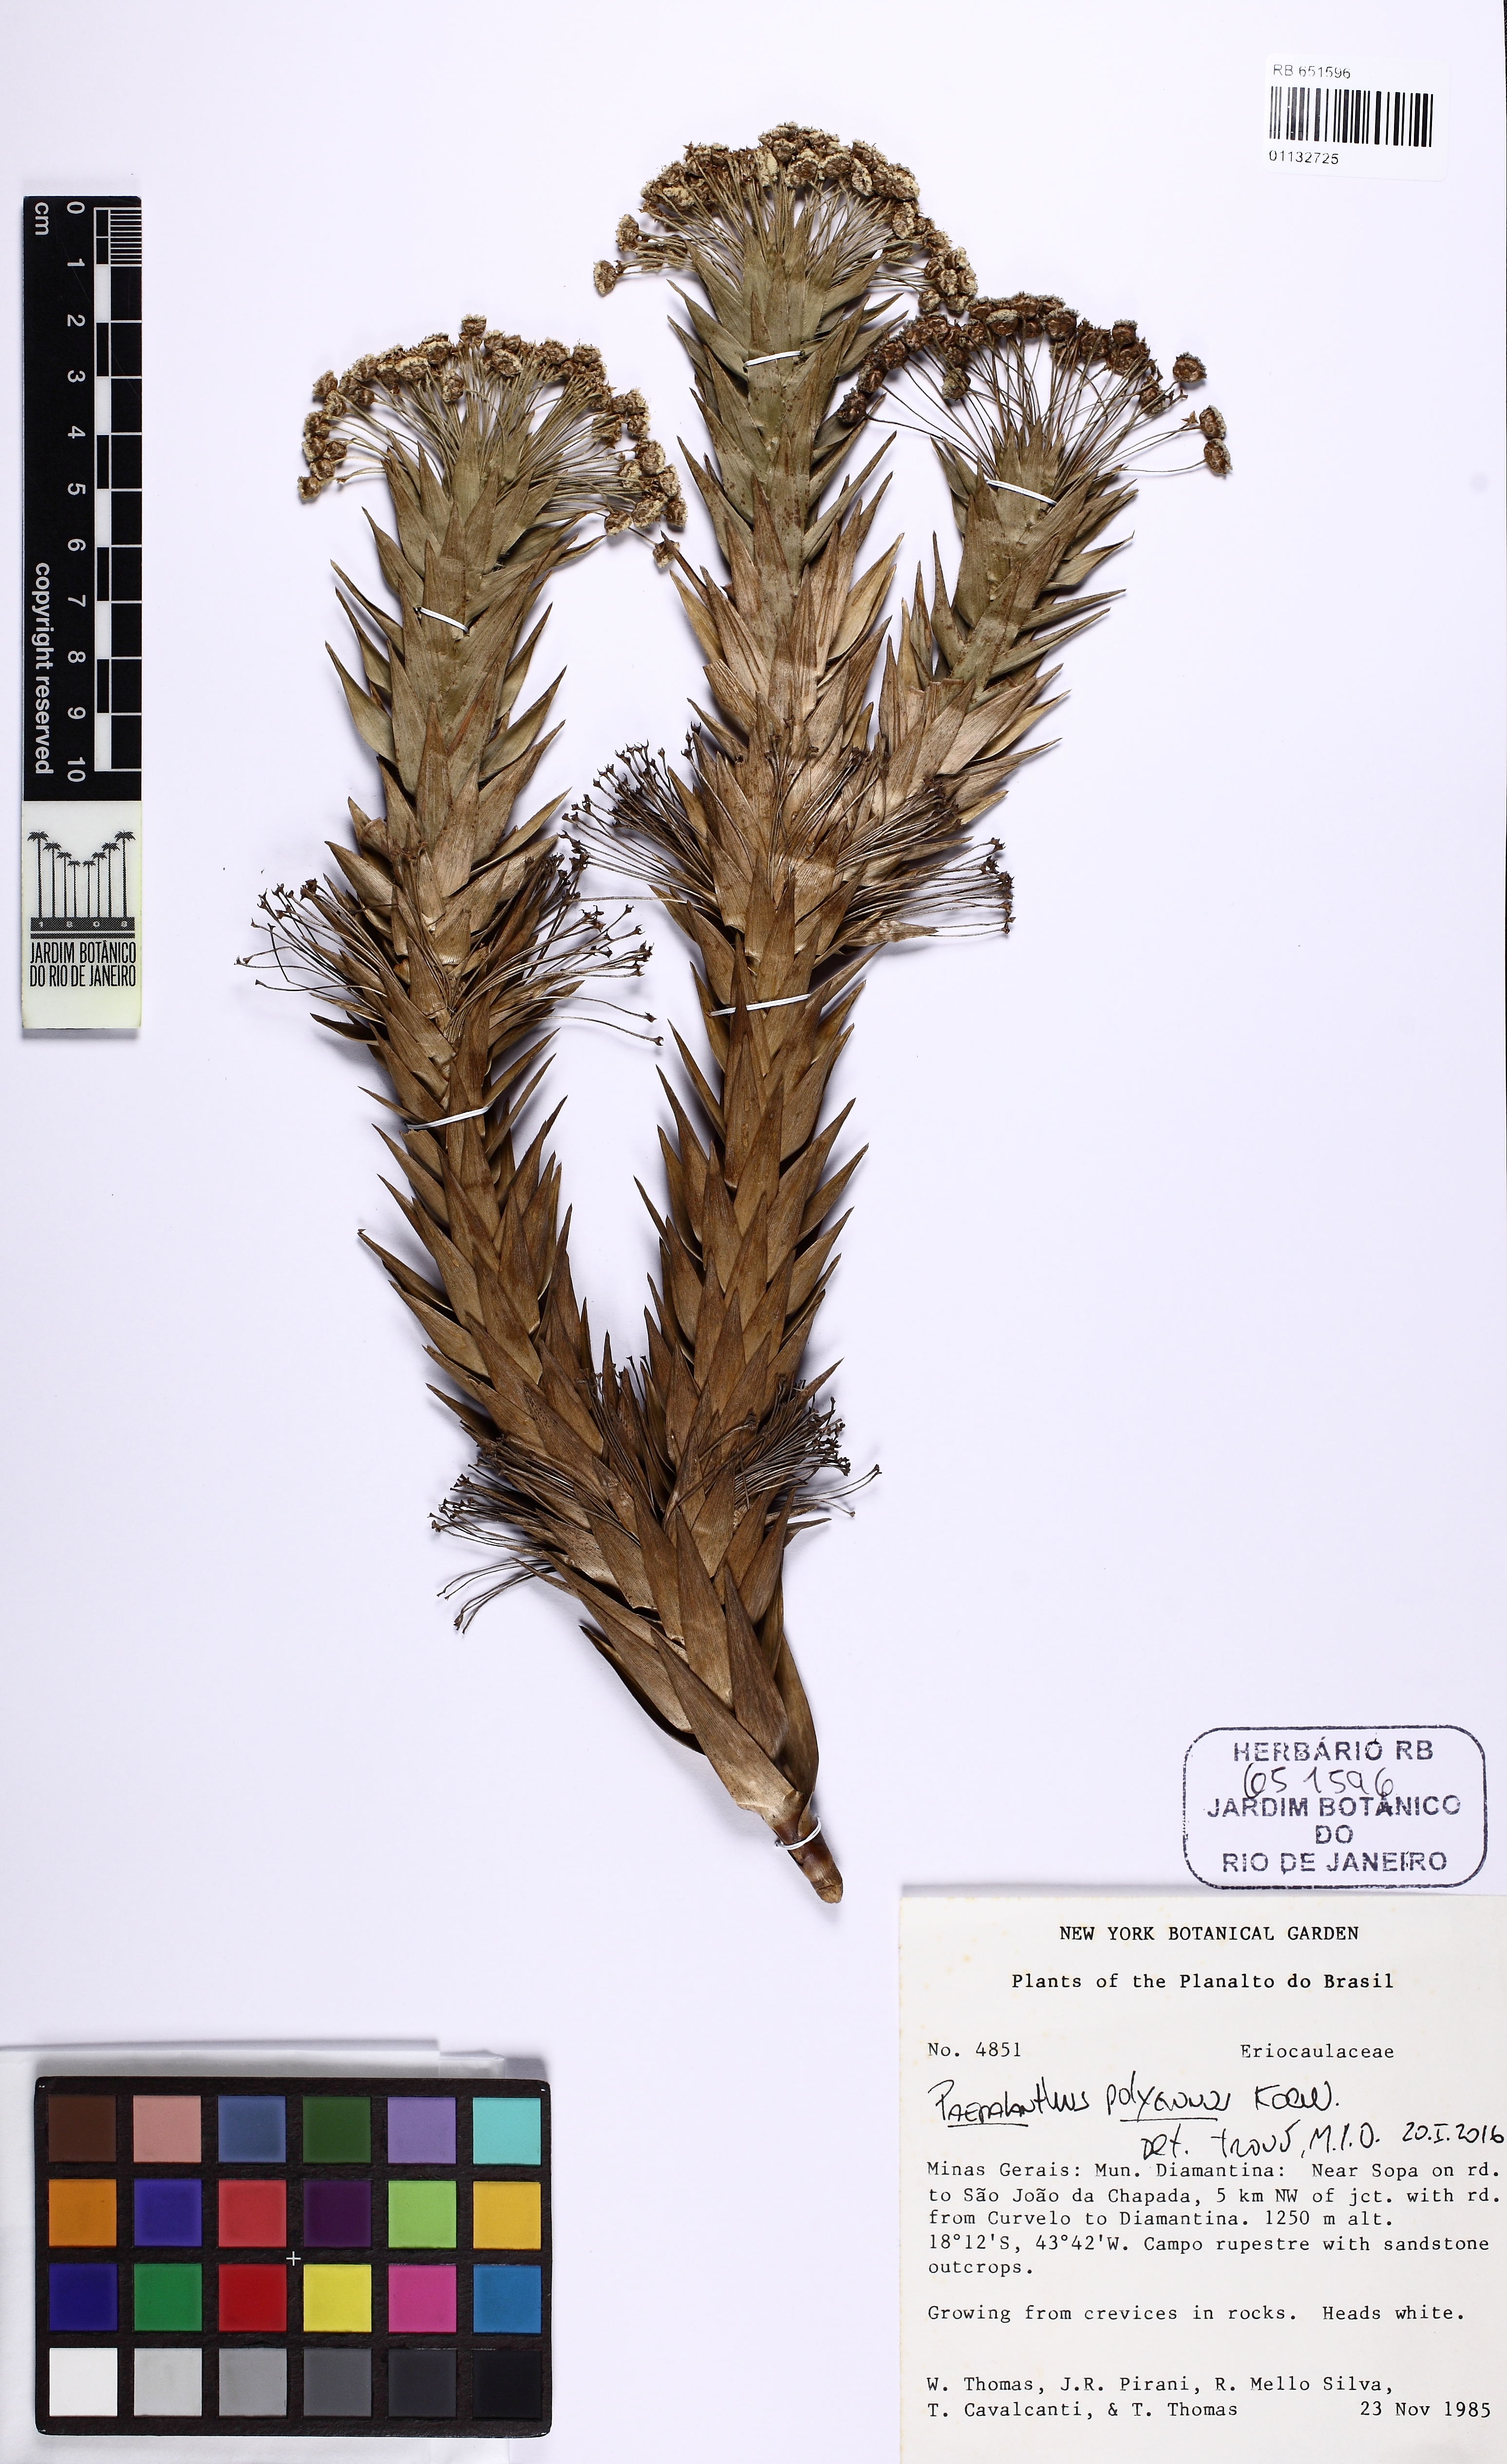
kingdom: Plantae
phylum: Tracheophyta
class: Liliopsida
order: Poales
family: Eriocaulaceae
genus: Paepalanthus
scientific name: Paepalanthus polygonus
